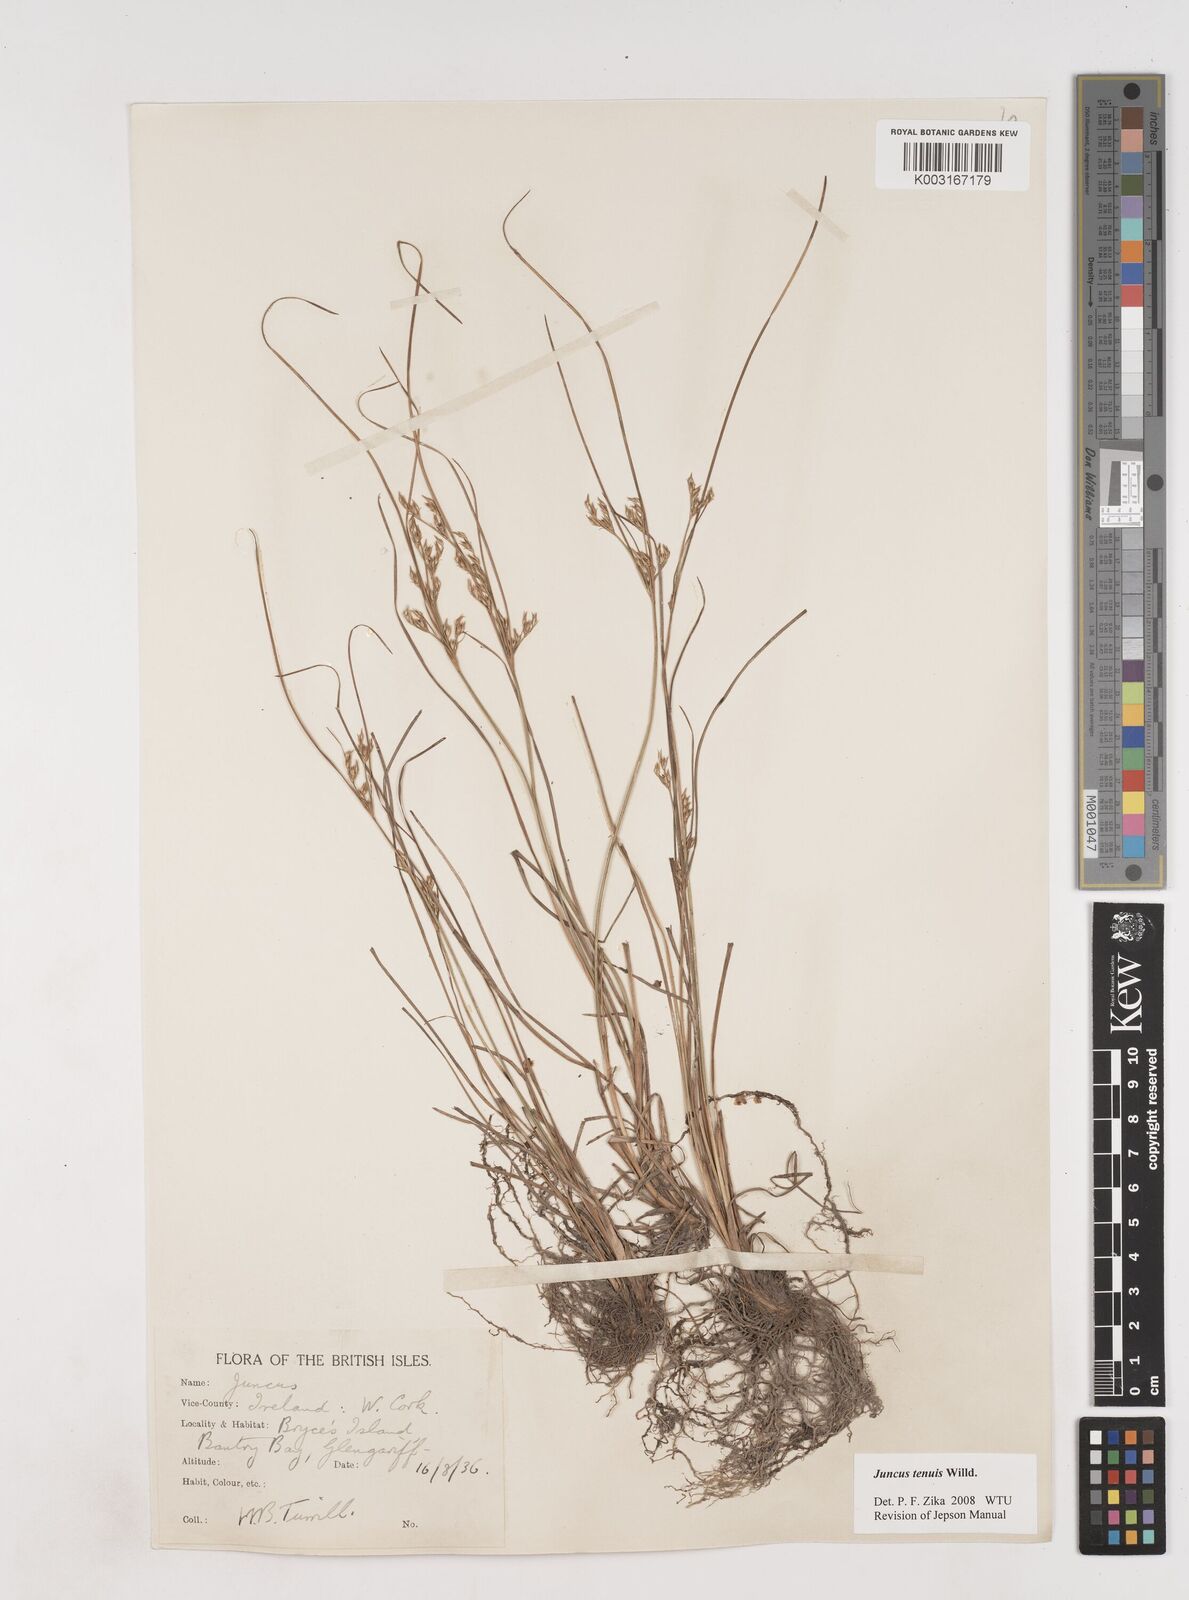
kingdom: Plantae
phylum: Tracheophyta
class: Liliopsida
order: Poales
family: Juncaceae
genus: Juncus
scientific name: Juncus tenuis
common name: Slender rush
